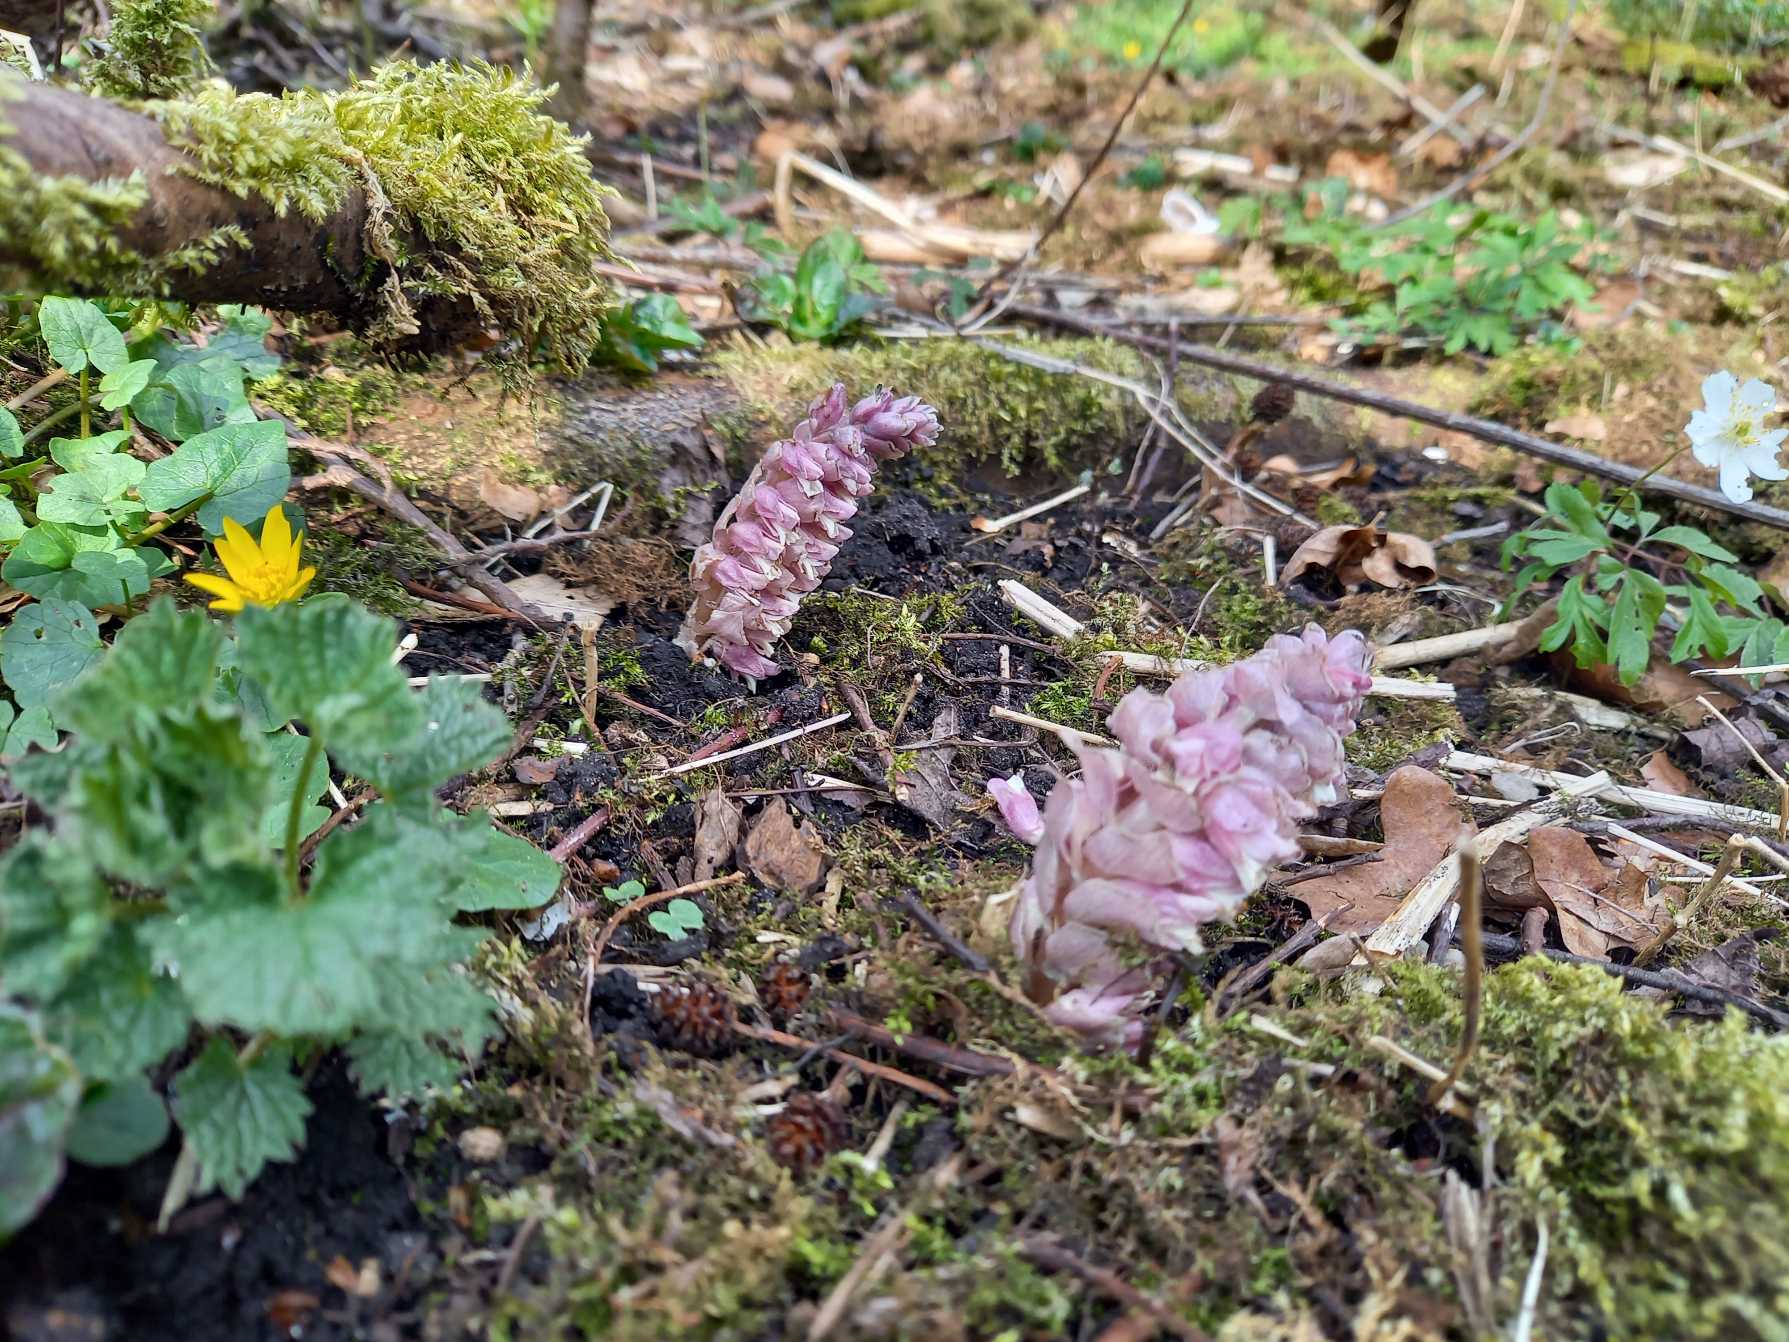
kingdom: Plantae
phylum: Tracheophyta
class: Magnoliopsida
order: Lamiales
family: Orobanchaceae
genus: Lathraea
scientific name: Lathraea squamaria
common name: Skælrod
